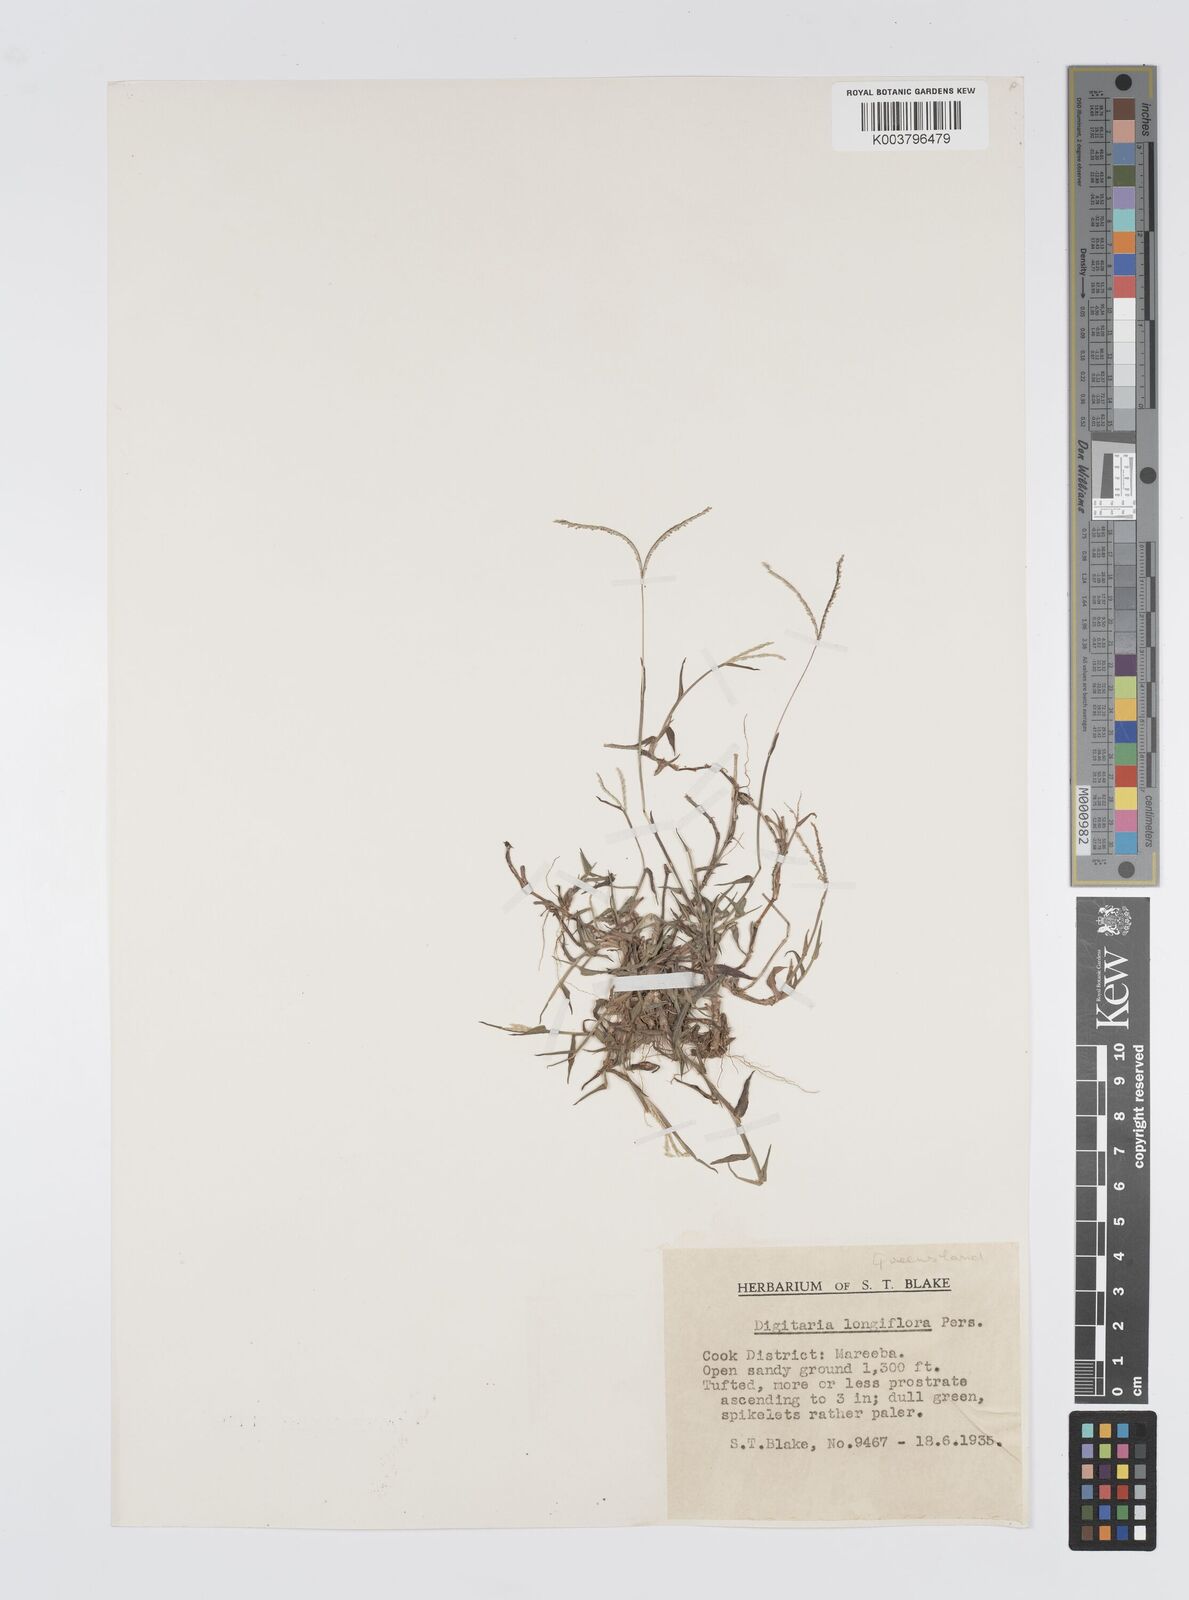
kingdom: Plantae
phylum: Tracheophyta
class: Liliopsida
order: Poales
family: Poaceae
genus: Digitaria
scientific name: Digitaria longiflora
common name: Wire crabgrass
